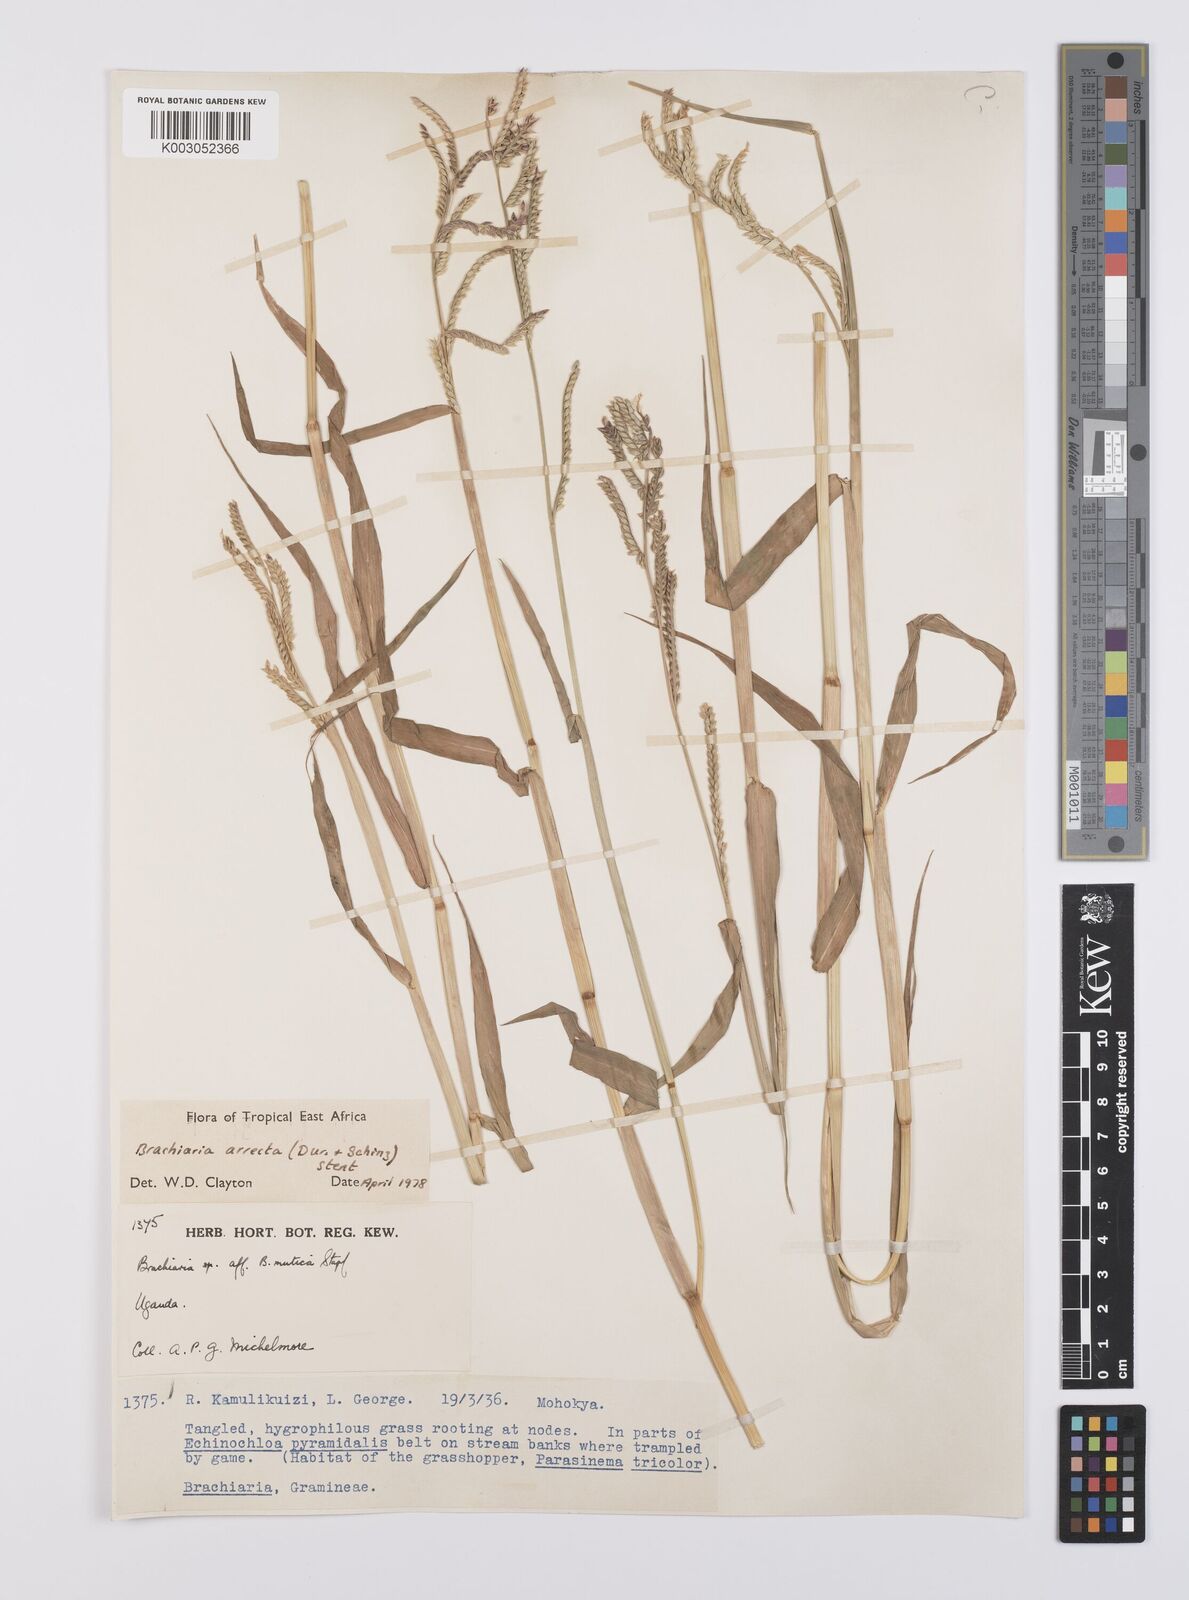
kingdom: Plantae
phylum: Tracheophyta
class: Liliopsida
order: Poales
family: Poaceae
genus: Urochloa
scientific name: Urochloa arrecta
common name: African signalgrass
